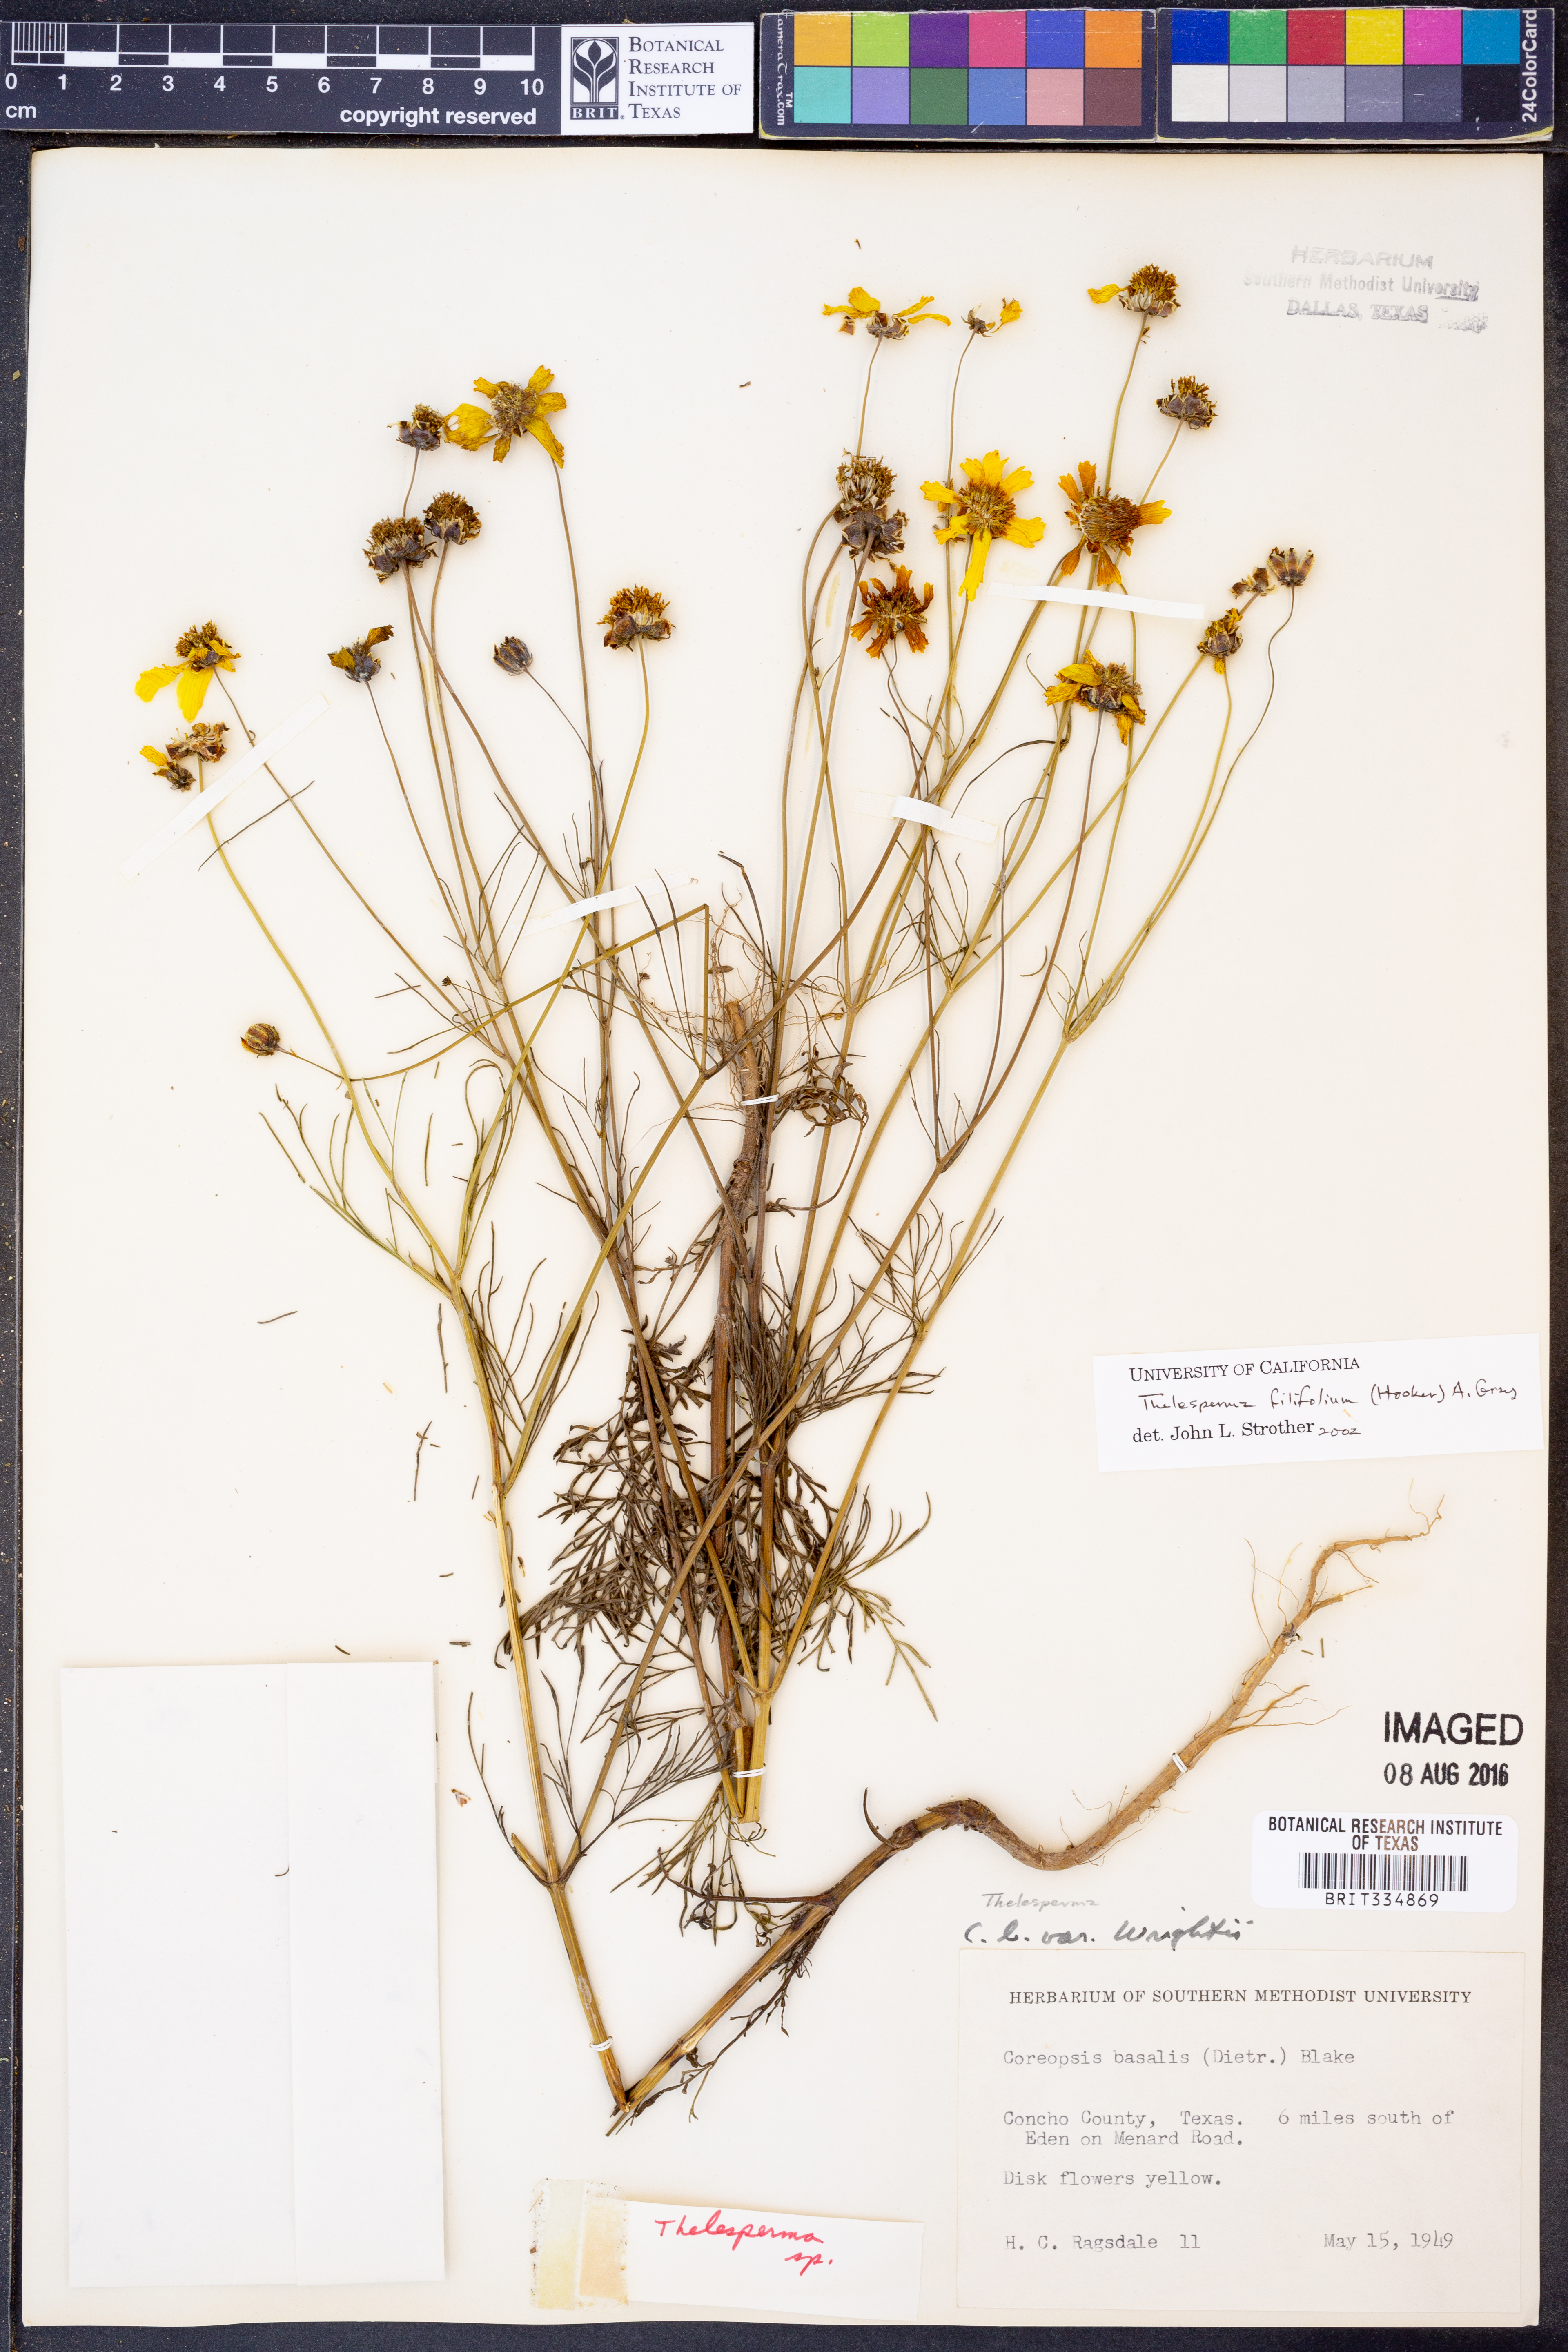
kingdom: Plantae
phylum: Tracheophyta
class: Magnoliopsida
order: Asterales
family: Asteraceae
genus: Thelesperma
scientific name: Thelesperma filifolium
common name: Stiff greenthread
